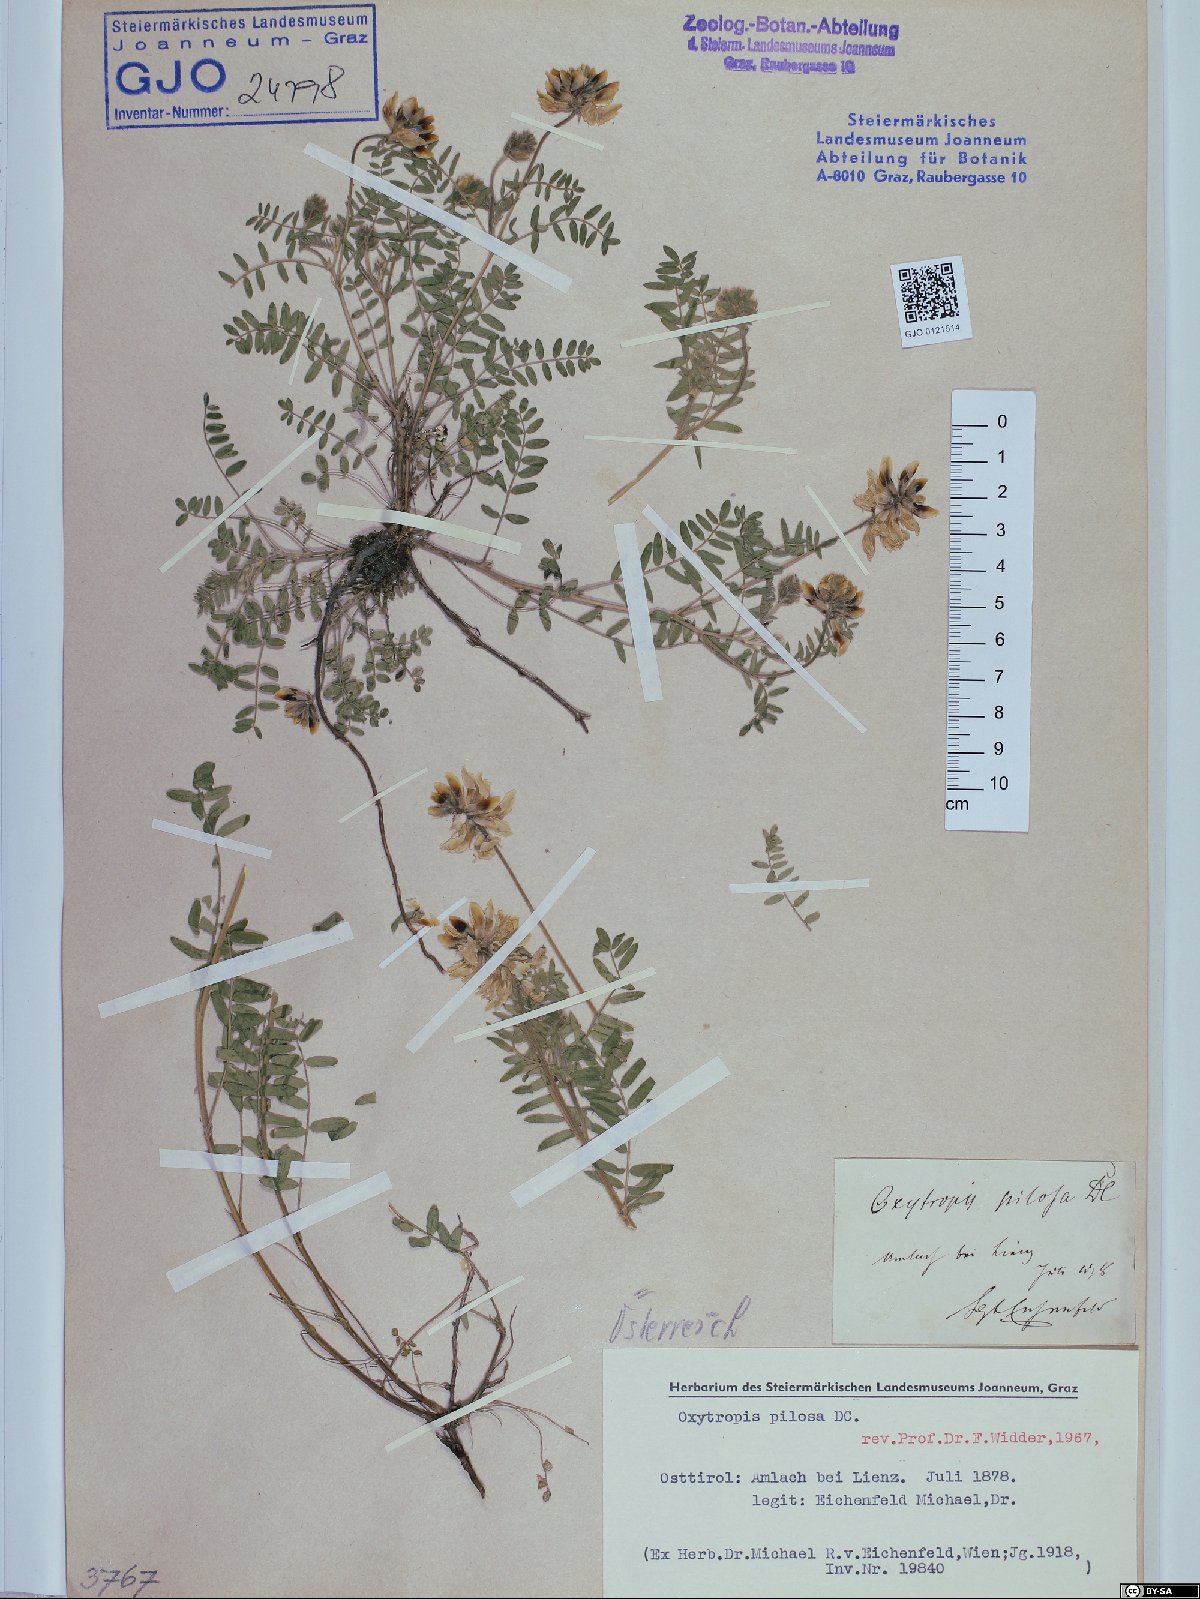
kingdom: Plantae
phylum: Tracheophyta
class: Magnoliopsida
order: Fabales
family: Fabaceae
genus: Oxytropis
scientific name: Oxytropis pilosa
